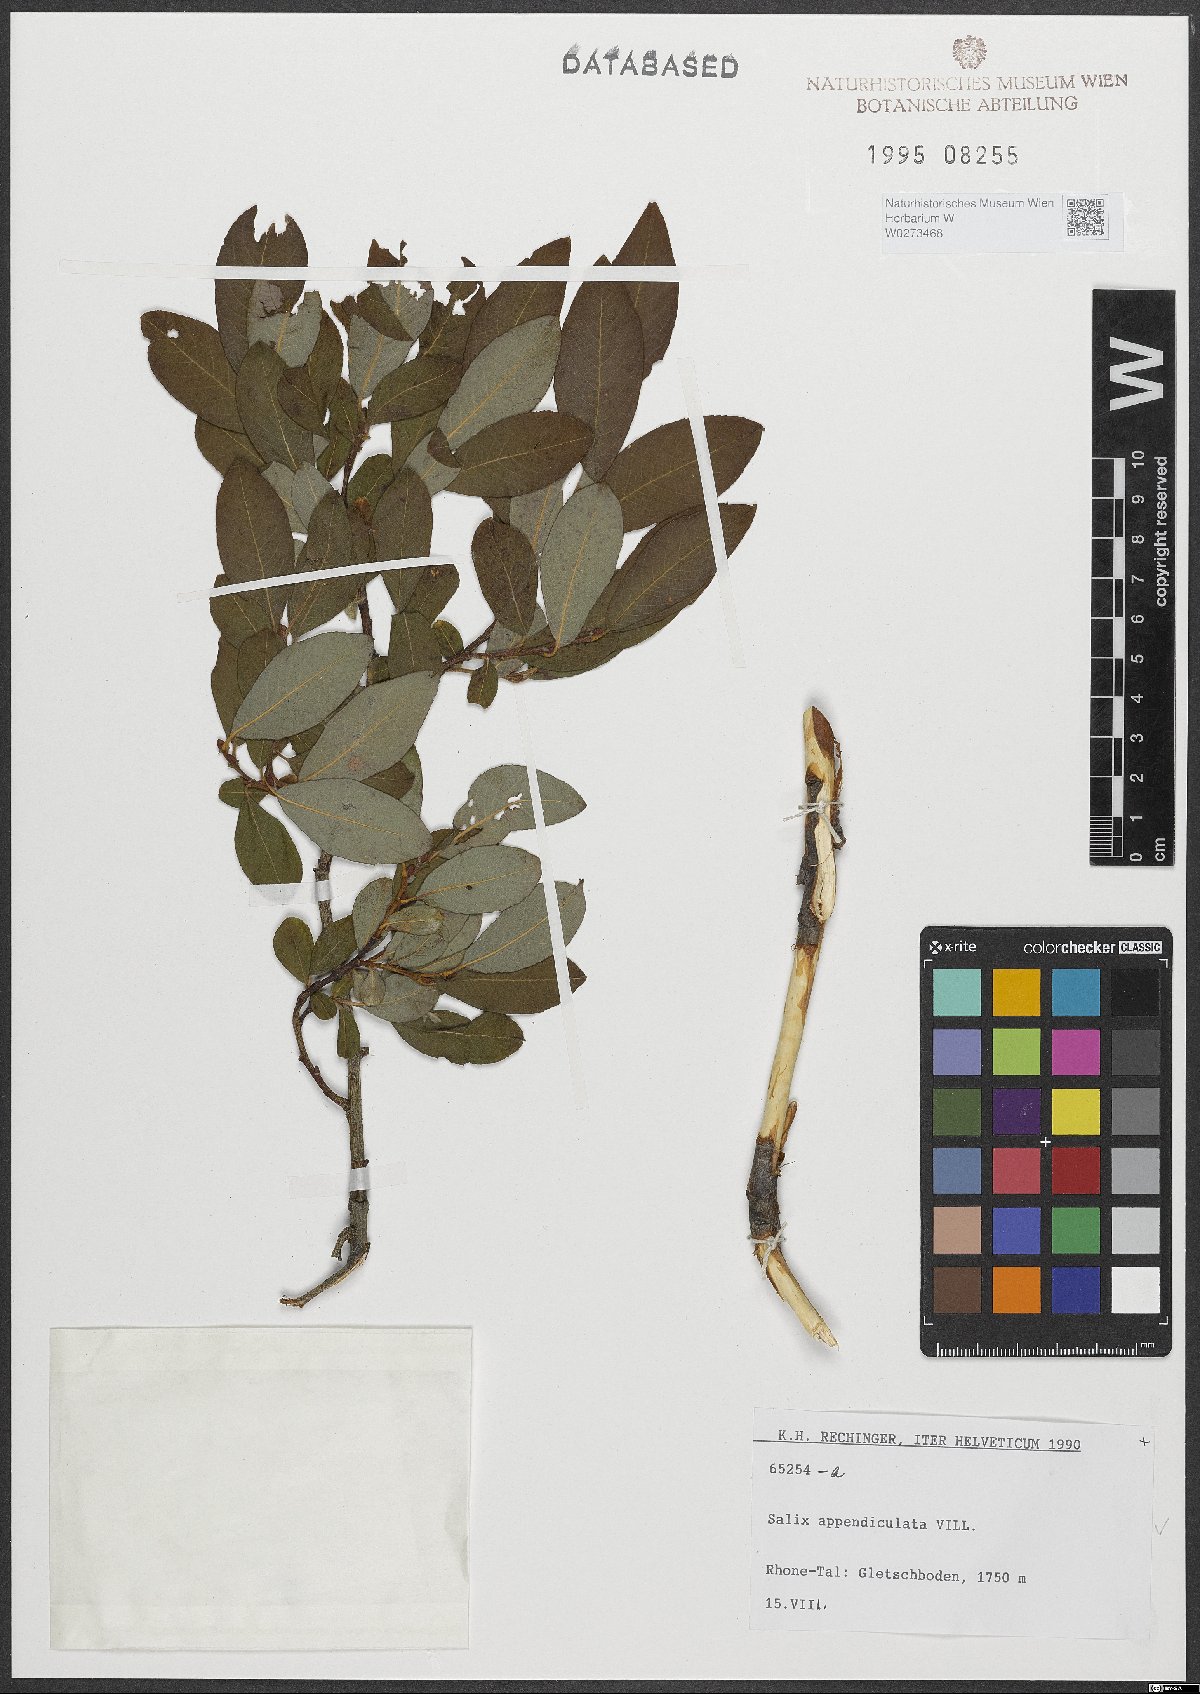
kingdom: Plantae
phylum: Tracheophyta
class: Magnoliopsida
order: Malpighiales
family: Salicaceae
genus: Salix
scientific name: Salix appendiculata
